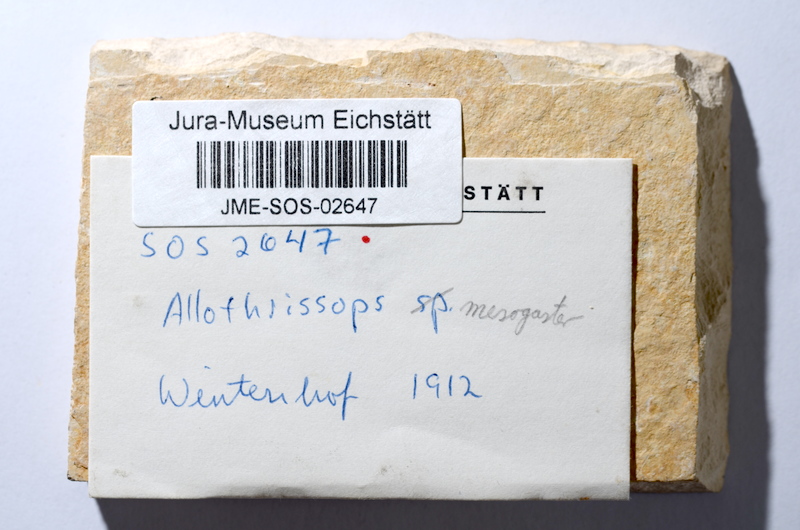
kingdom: Animalia
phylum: Chordata
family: Allothrissopidae
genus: Allothrissops
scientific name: Allothrissops mesogaster
